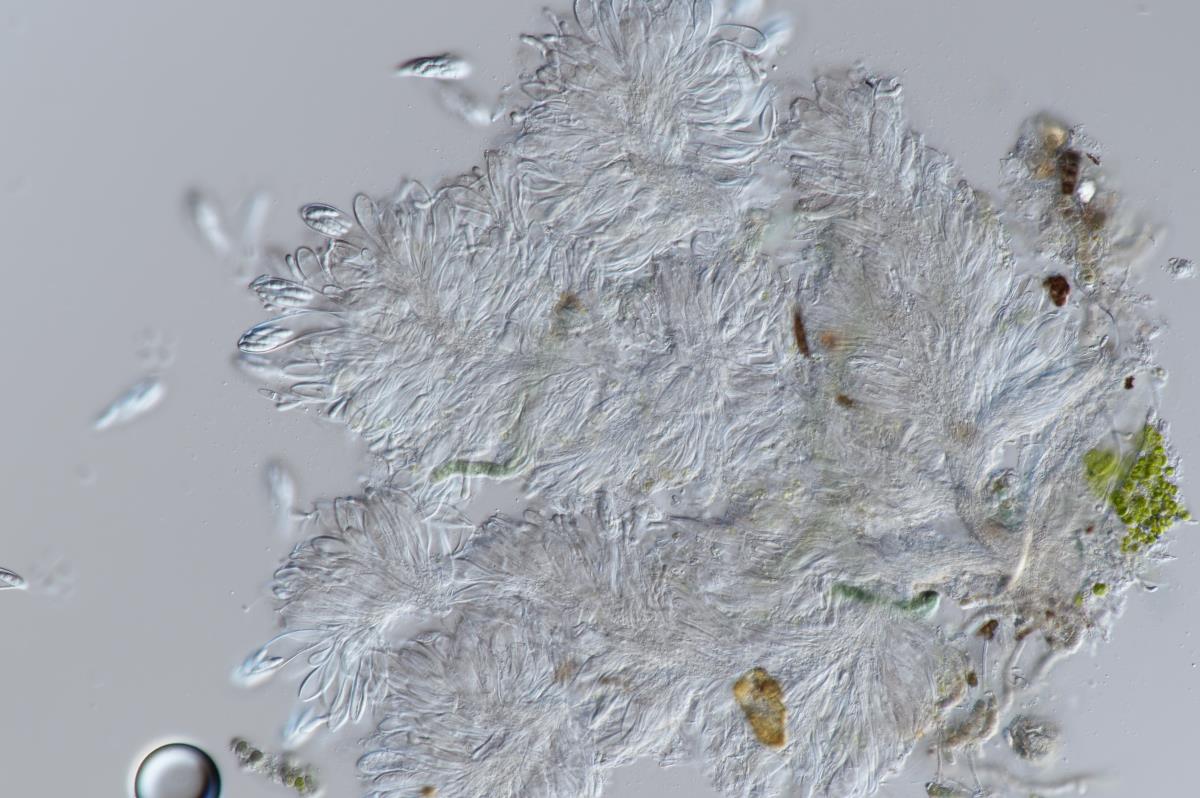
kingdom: Fungi
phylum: Ascomycota
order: Vezdaeales
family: Vezdaeaceae
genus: Vezdaea
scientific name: Vezdaea
